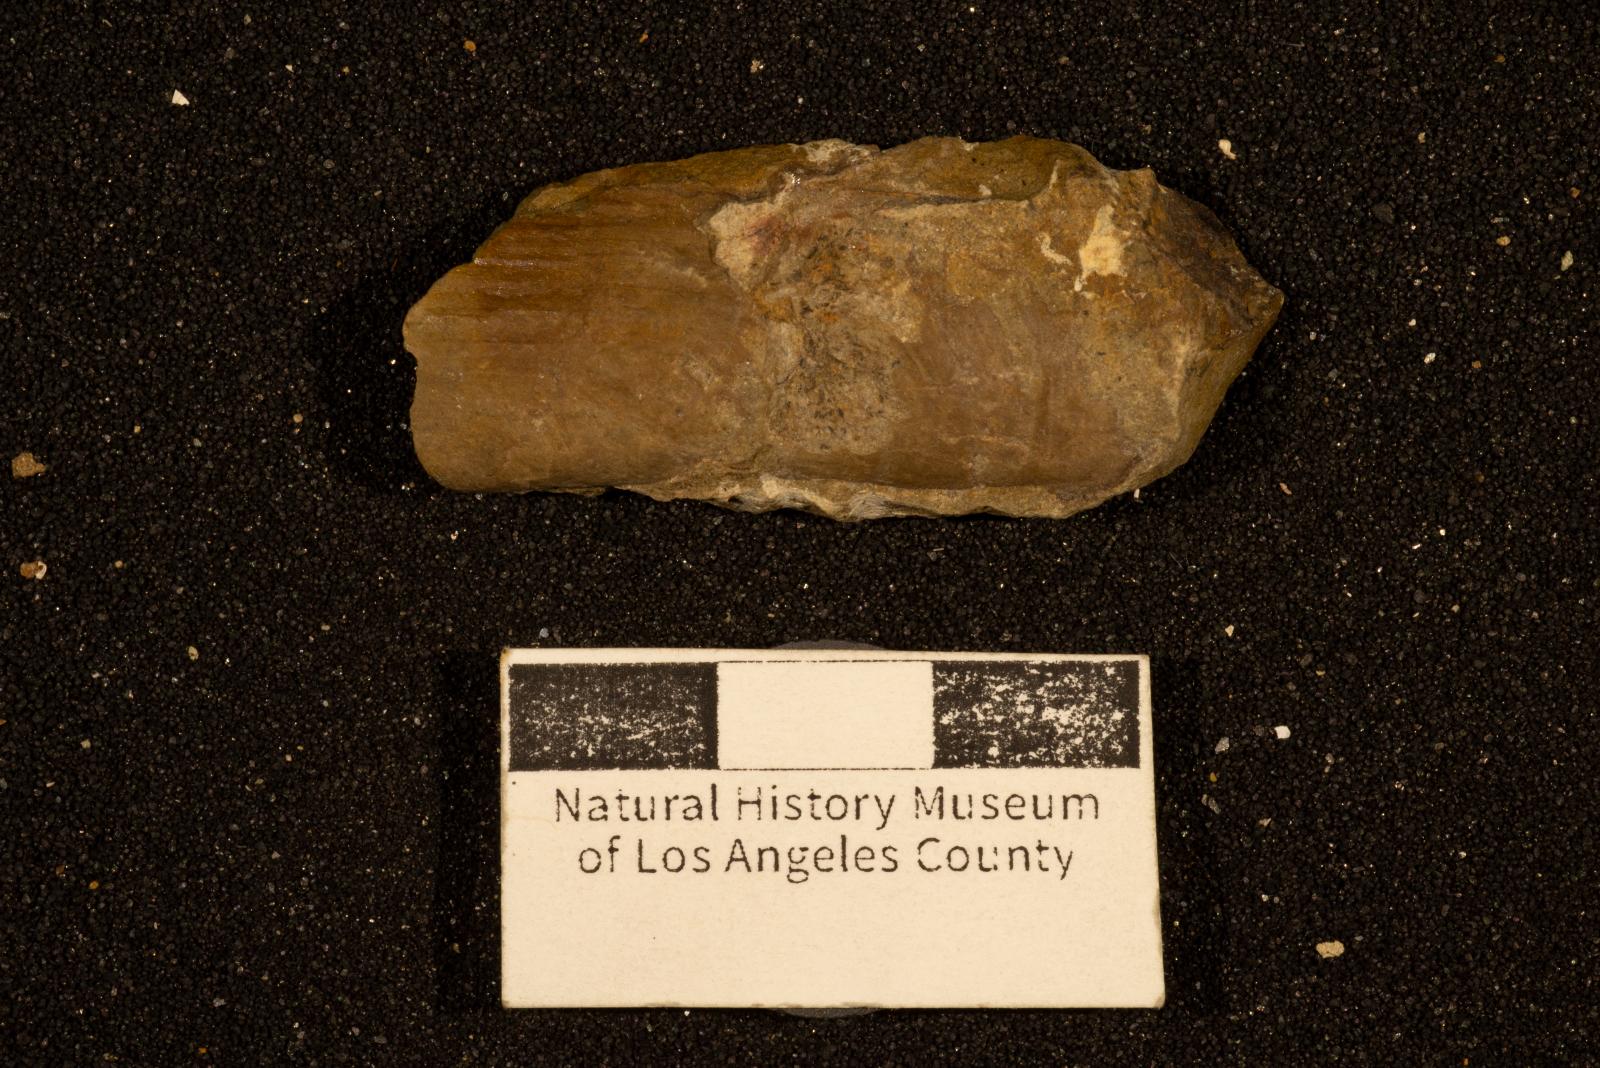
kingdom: Animalia
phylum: Mollusca
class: Bivalvia
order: Unionida
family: Iridinidae
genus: Leptosolen
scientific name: Leptosolen
